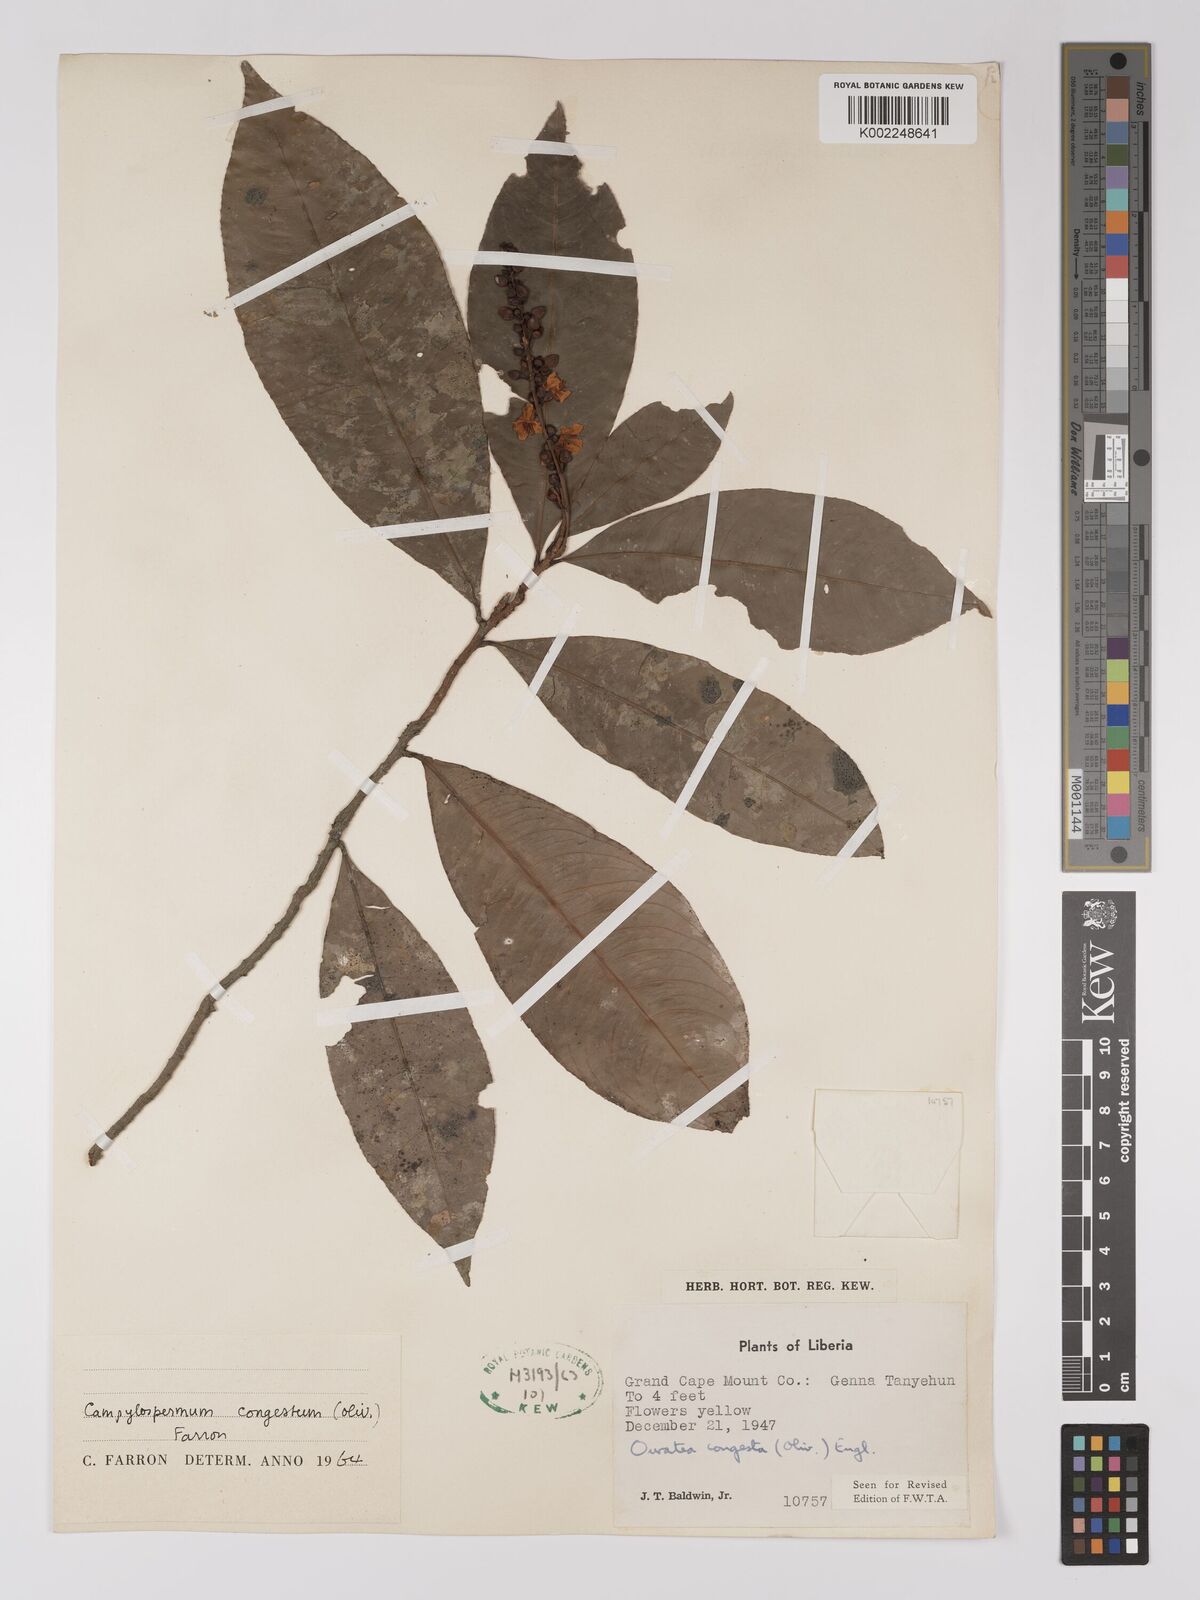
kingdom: Plantae
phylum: Tracheophyta
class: Magnoliopsida
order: Malpighiales
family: Ochnaceae
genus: Campylospermum
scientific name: Campylospermum congestum
